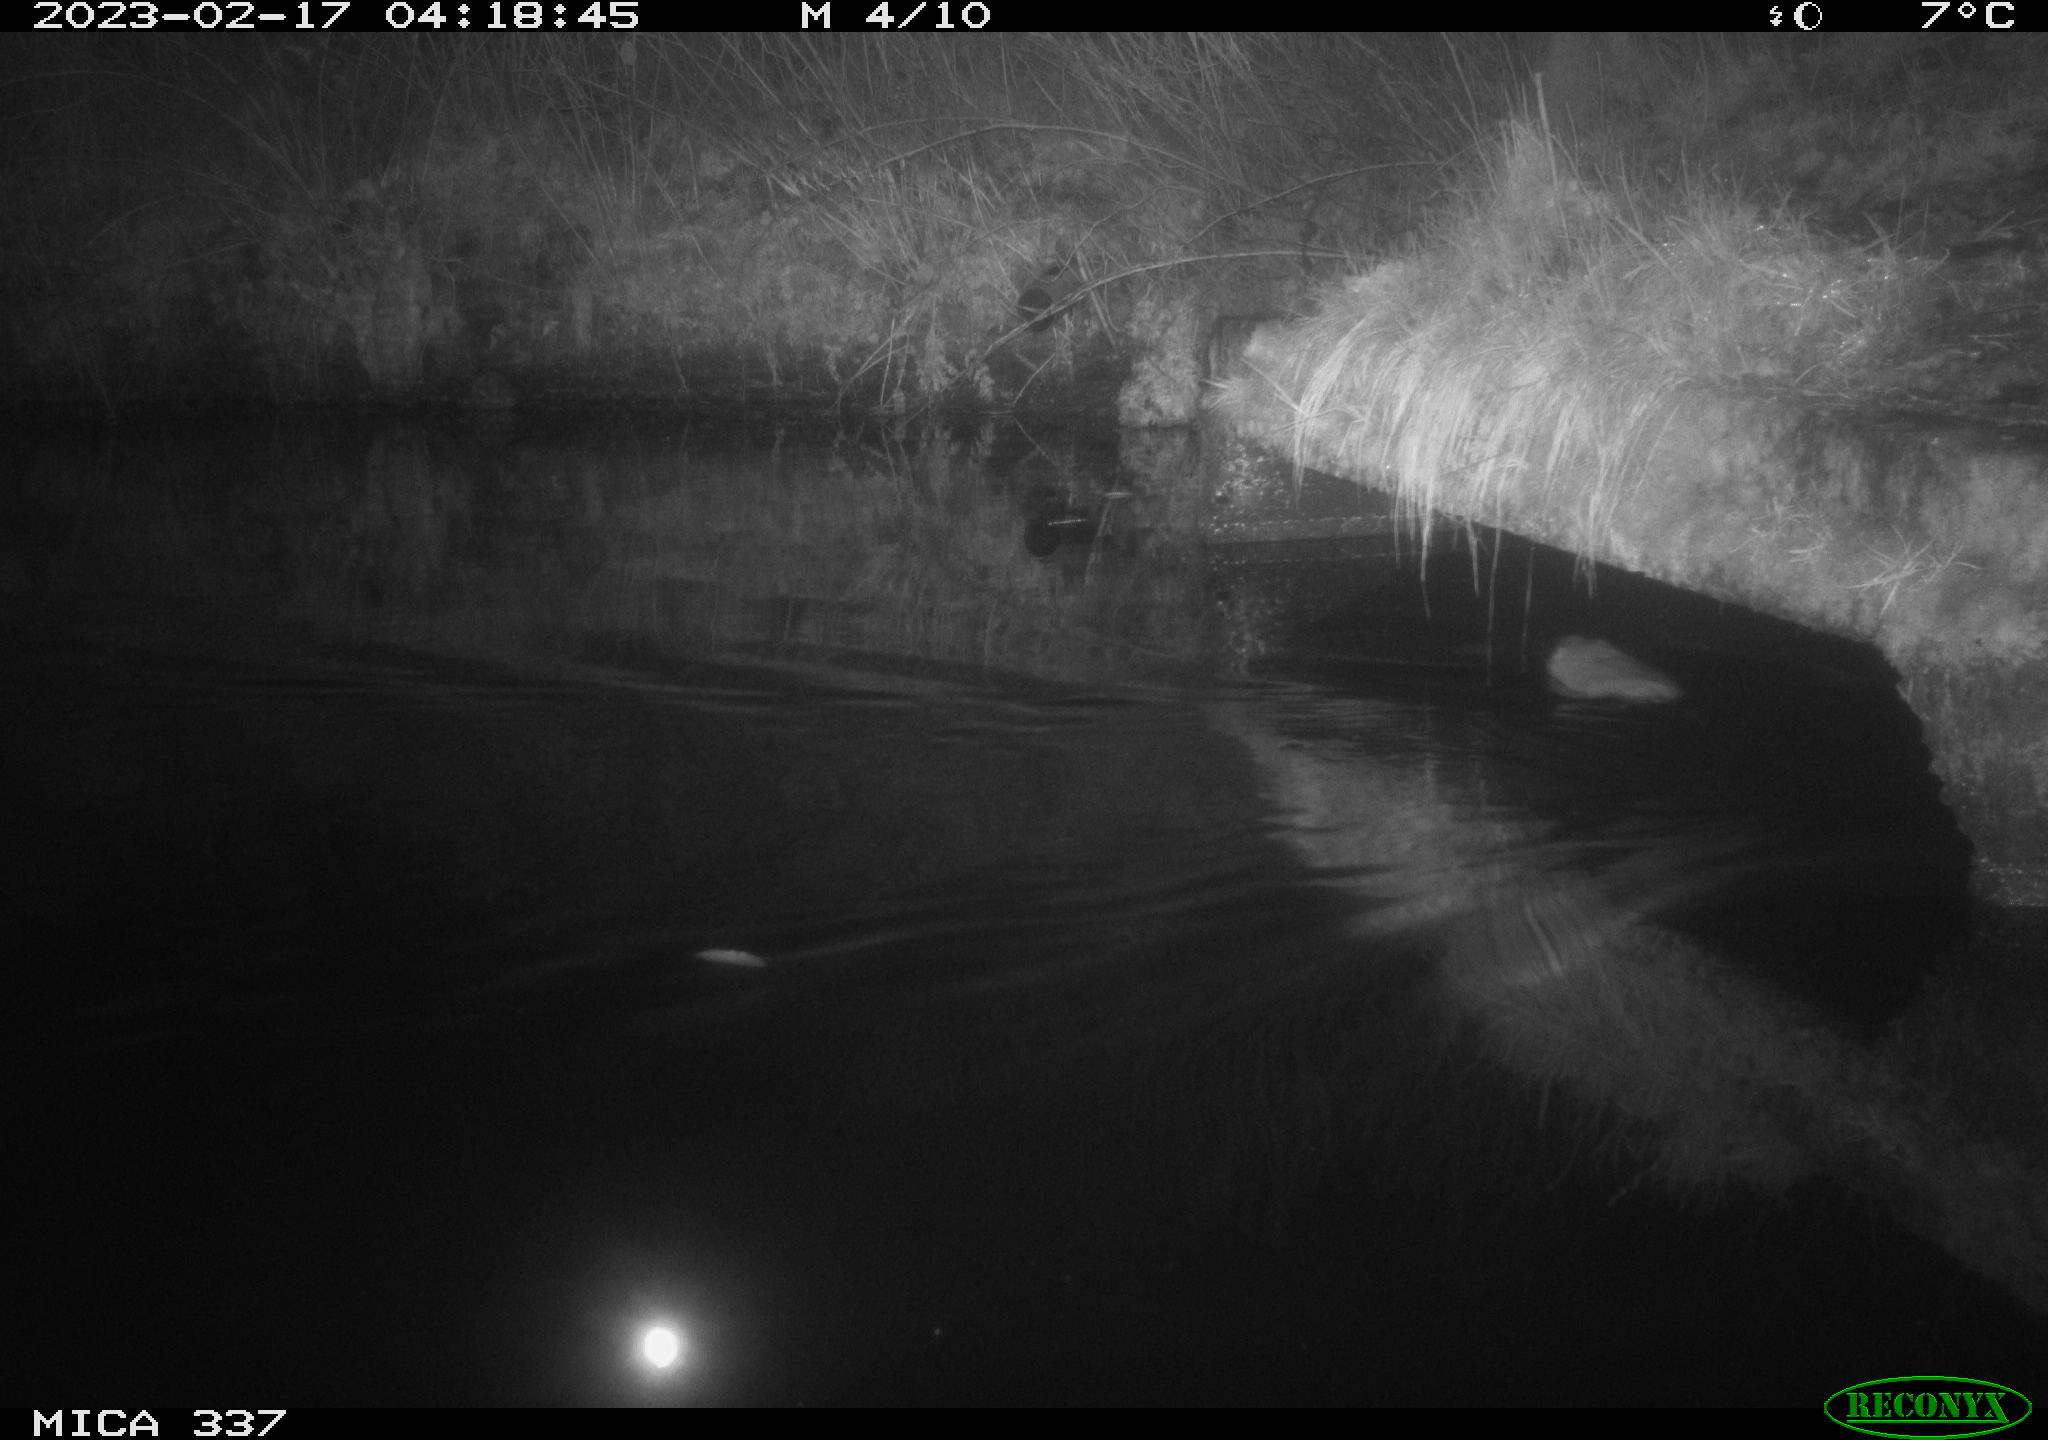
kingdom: Animalia
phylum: Chordata
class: Mammalia
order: Rodentia
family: Cricetidae
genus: Ondatra
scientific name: Ondatra zibethicus
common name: Muskrat
